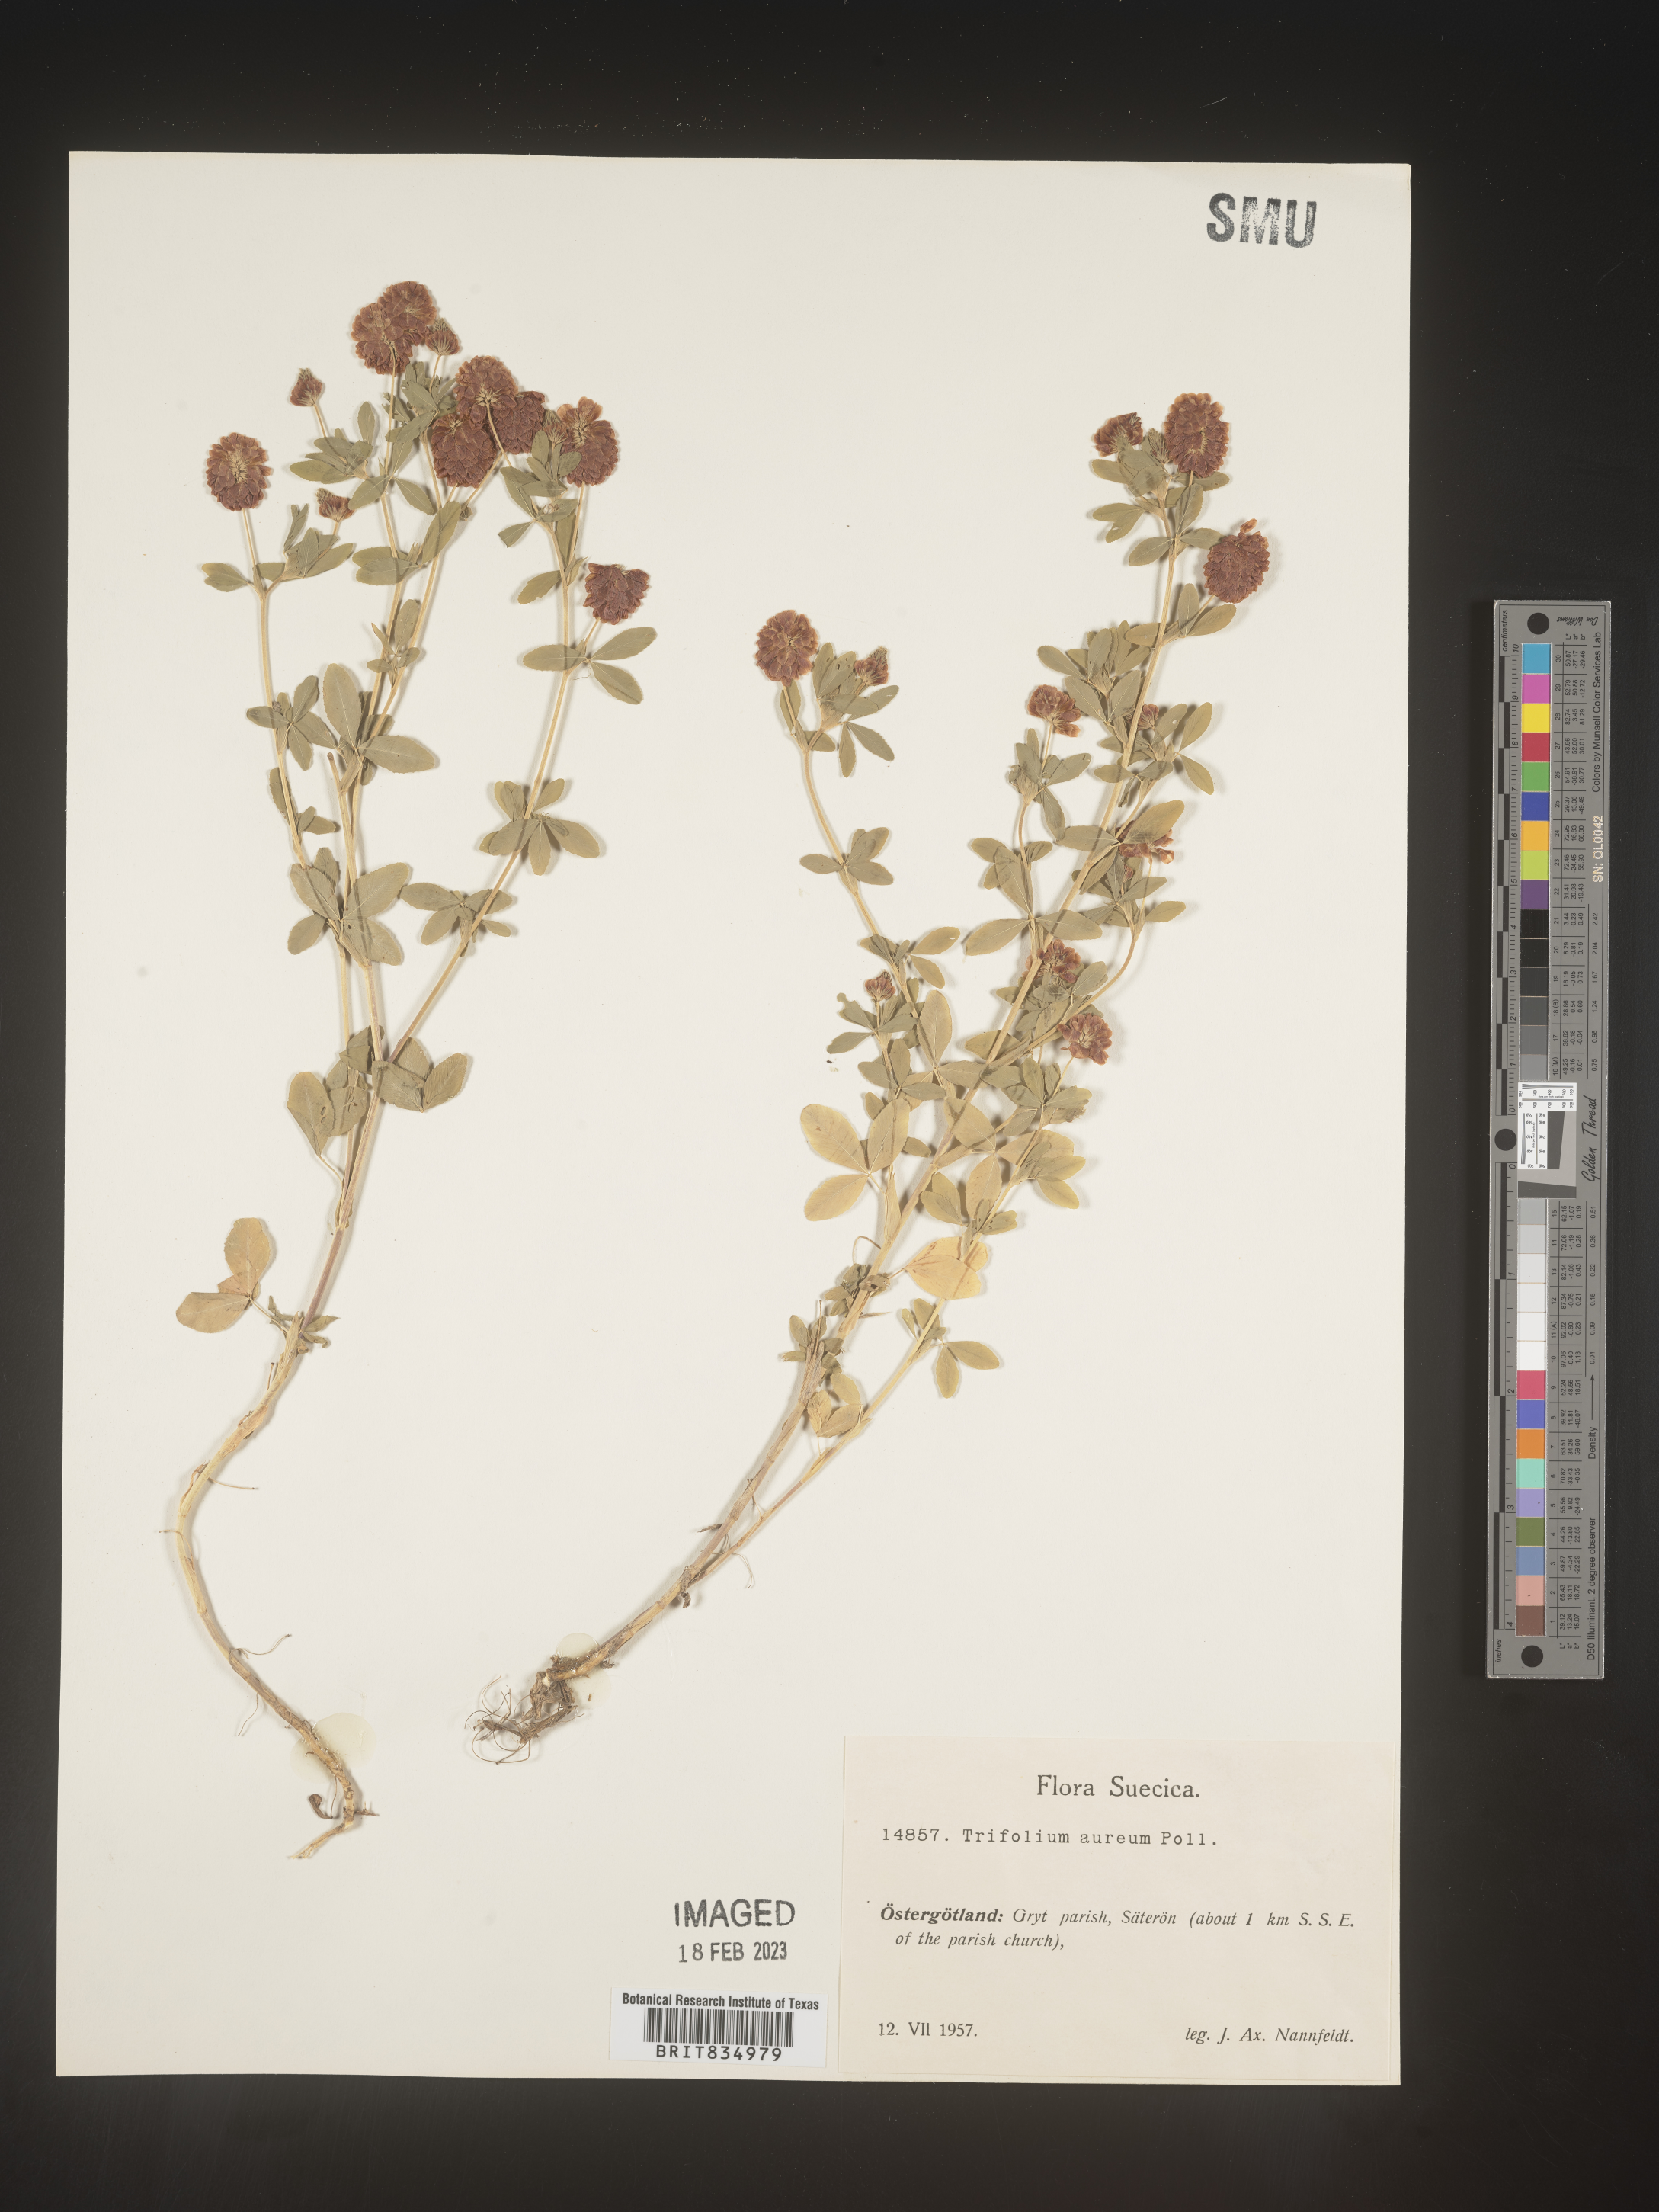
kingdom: Plantae
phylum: Tracheophyta
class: Magnoliopsida
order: Fabales
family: Fabaceae
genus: Trifolium
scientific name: Trifolium
